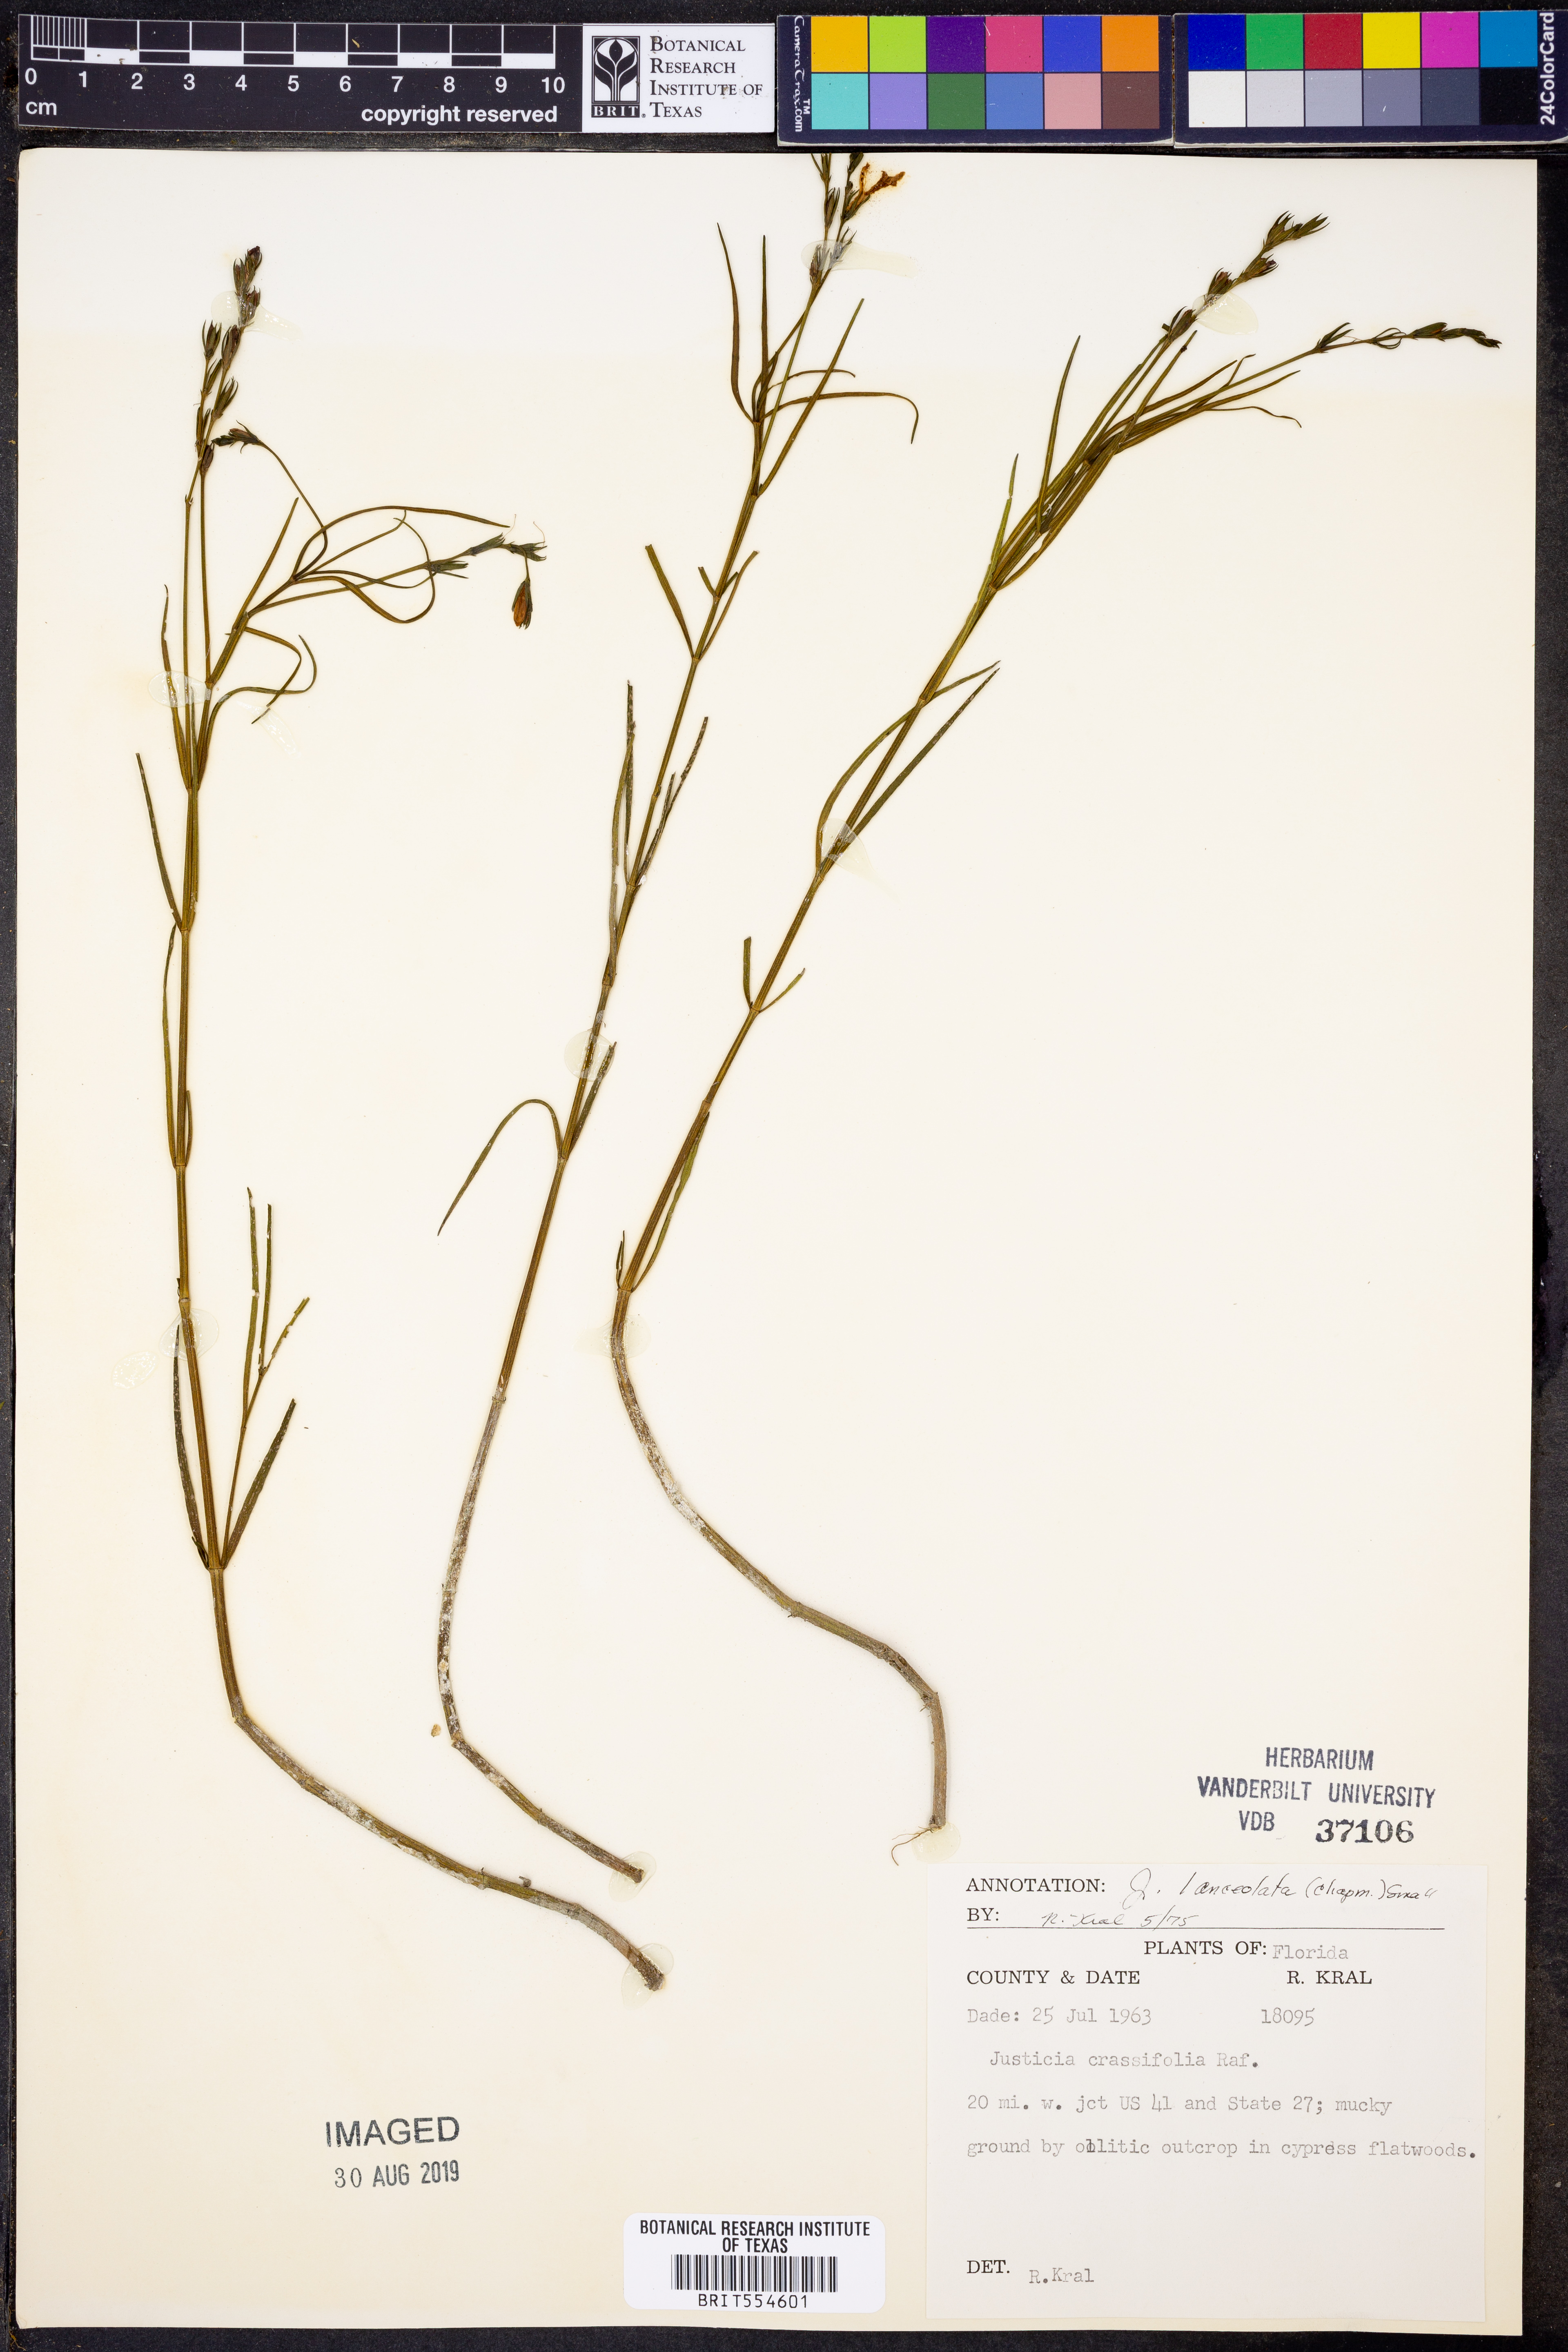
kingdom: Plantae
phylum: Tracheophyta
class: Magnoliopsida
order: Lamiales
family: Acanthaceae
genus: Justicia
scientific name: Justicia lanceolata
